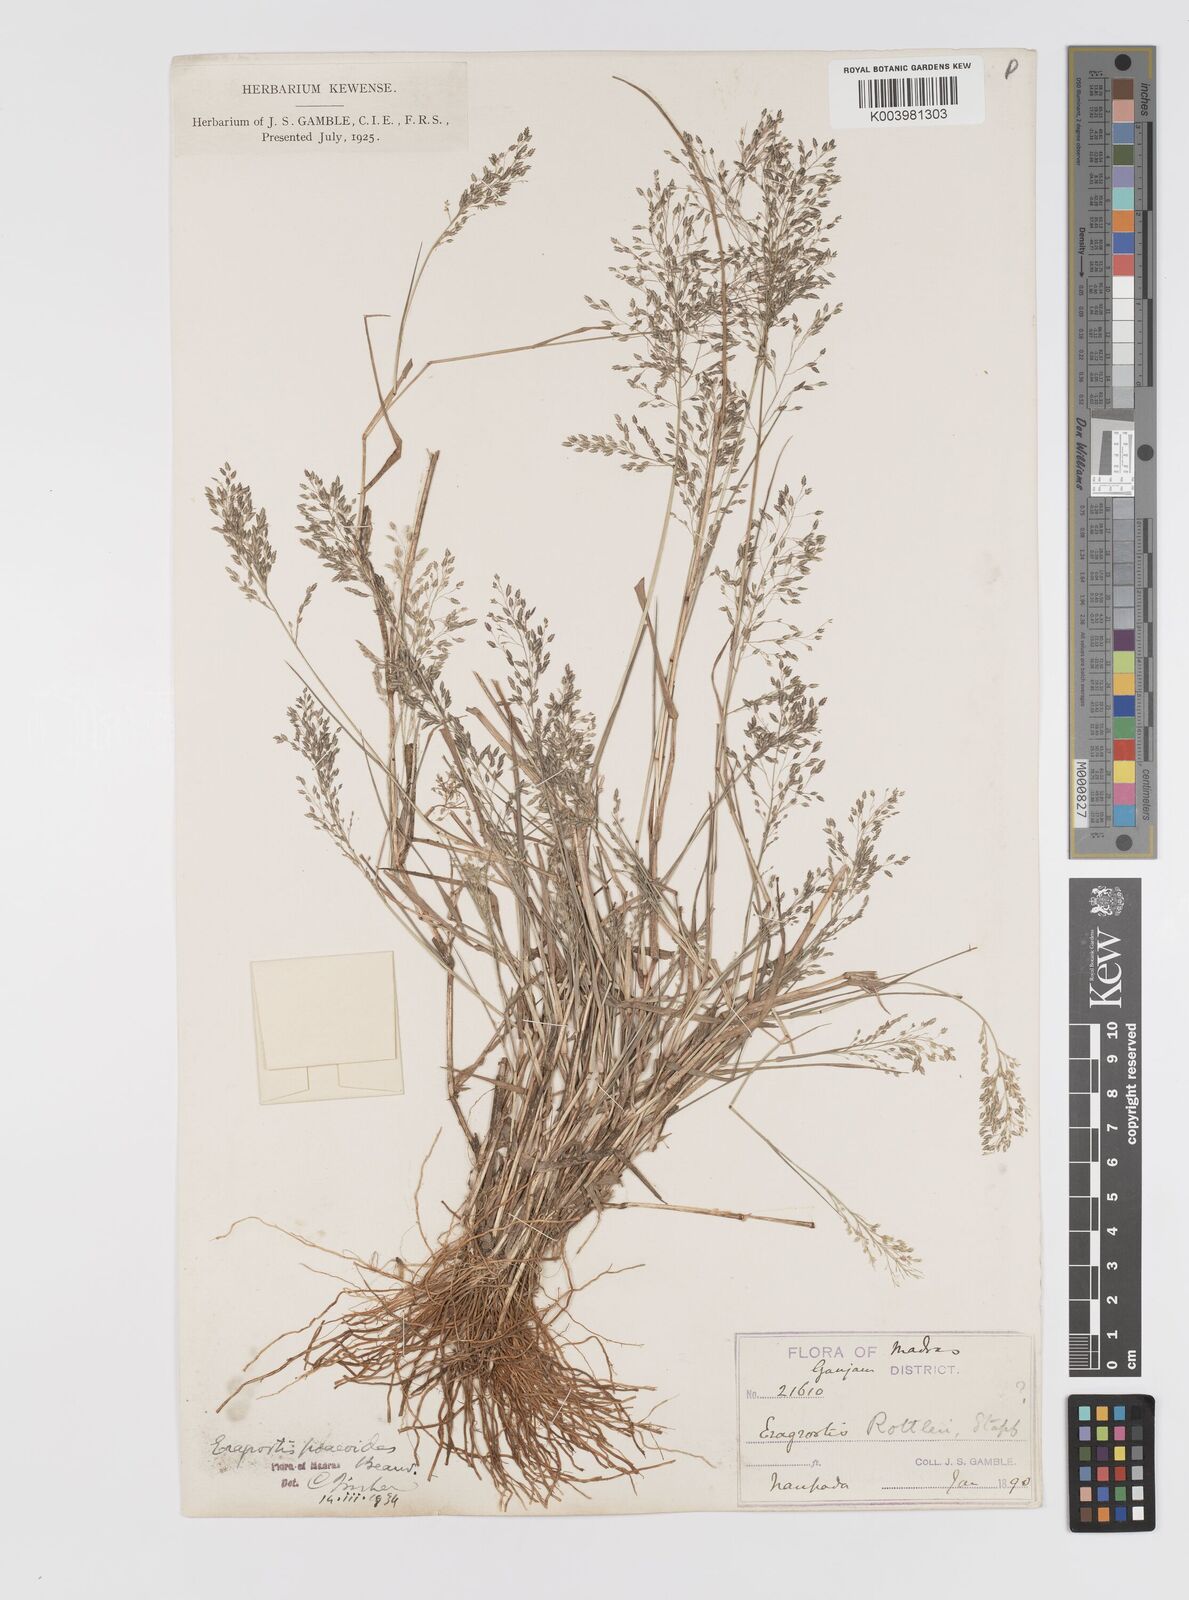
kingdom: Plantae
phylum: Tracheophyta
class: Liliopsida
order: Poales
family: Poaceae
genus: Eragrostis
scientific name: Eragrostis gangetica
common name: Slimflower lovegrass
